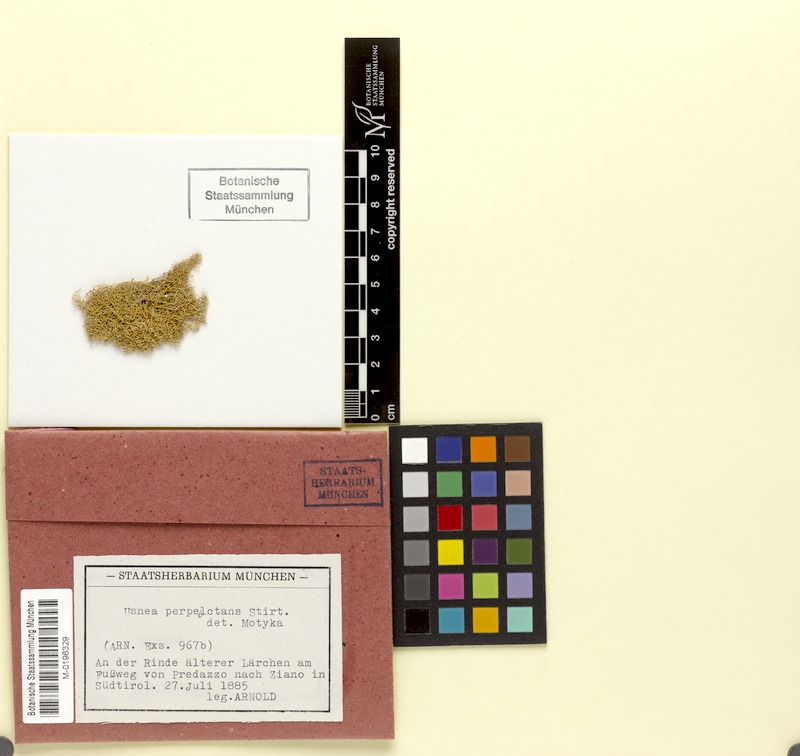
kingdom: Fungi
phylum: Ascomycota
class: Lecanoromycetes
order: Lecanorales
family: Parmeliaceae
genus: Usnea
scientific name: Usnea perplexans
